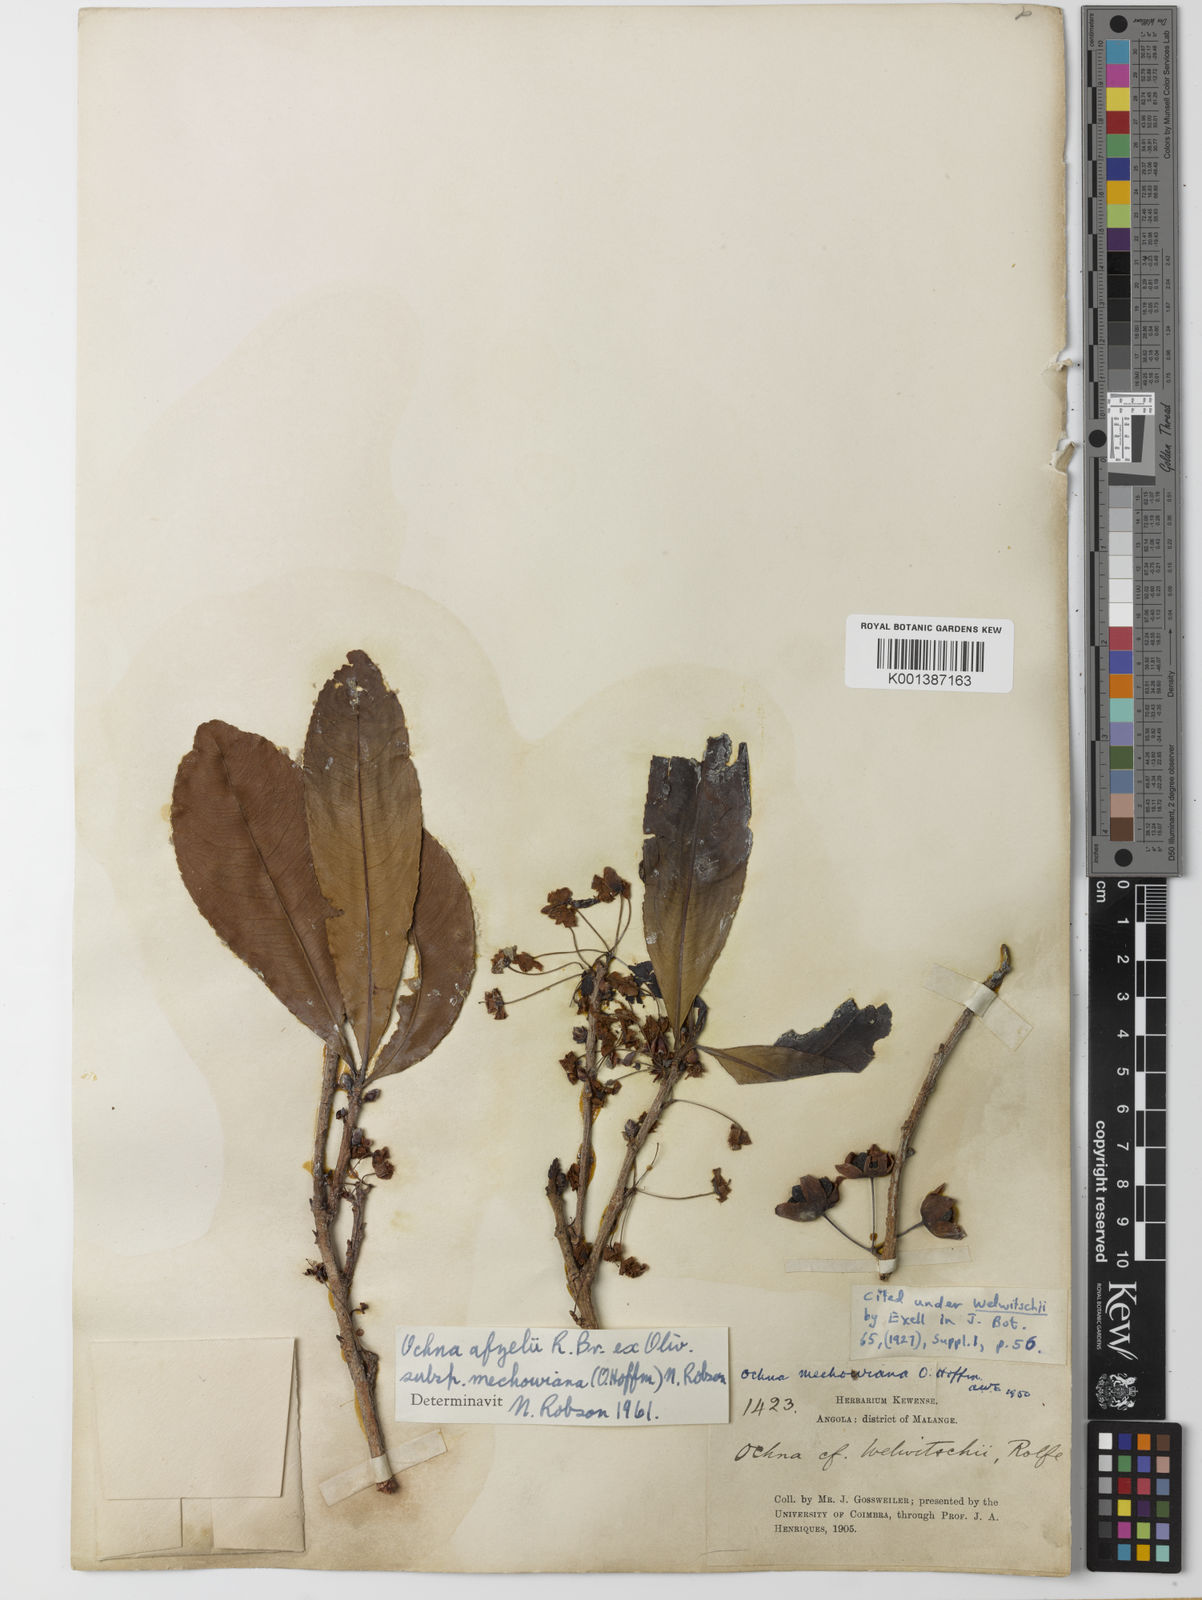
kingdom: Plantae
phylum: Tracheophyta
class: Magnoliopsida
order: Malpighiales
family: Ochnaceae
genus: Ochna
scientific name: Ochna
